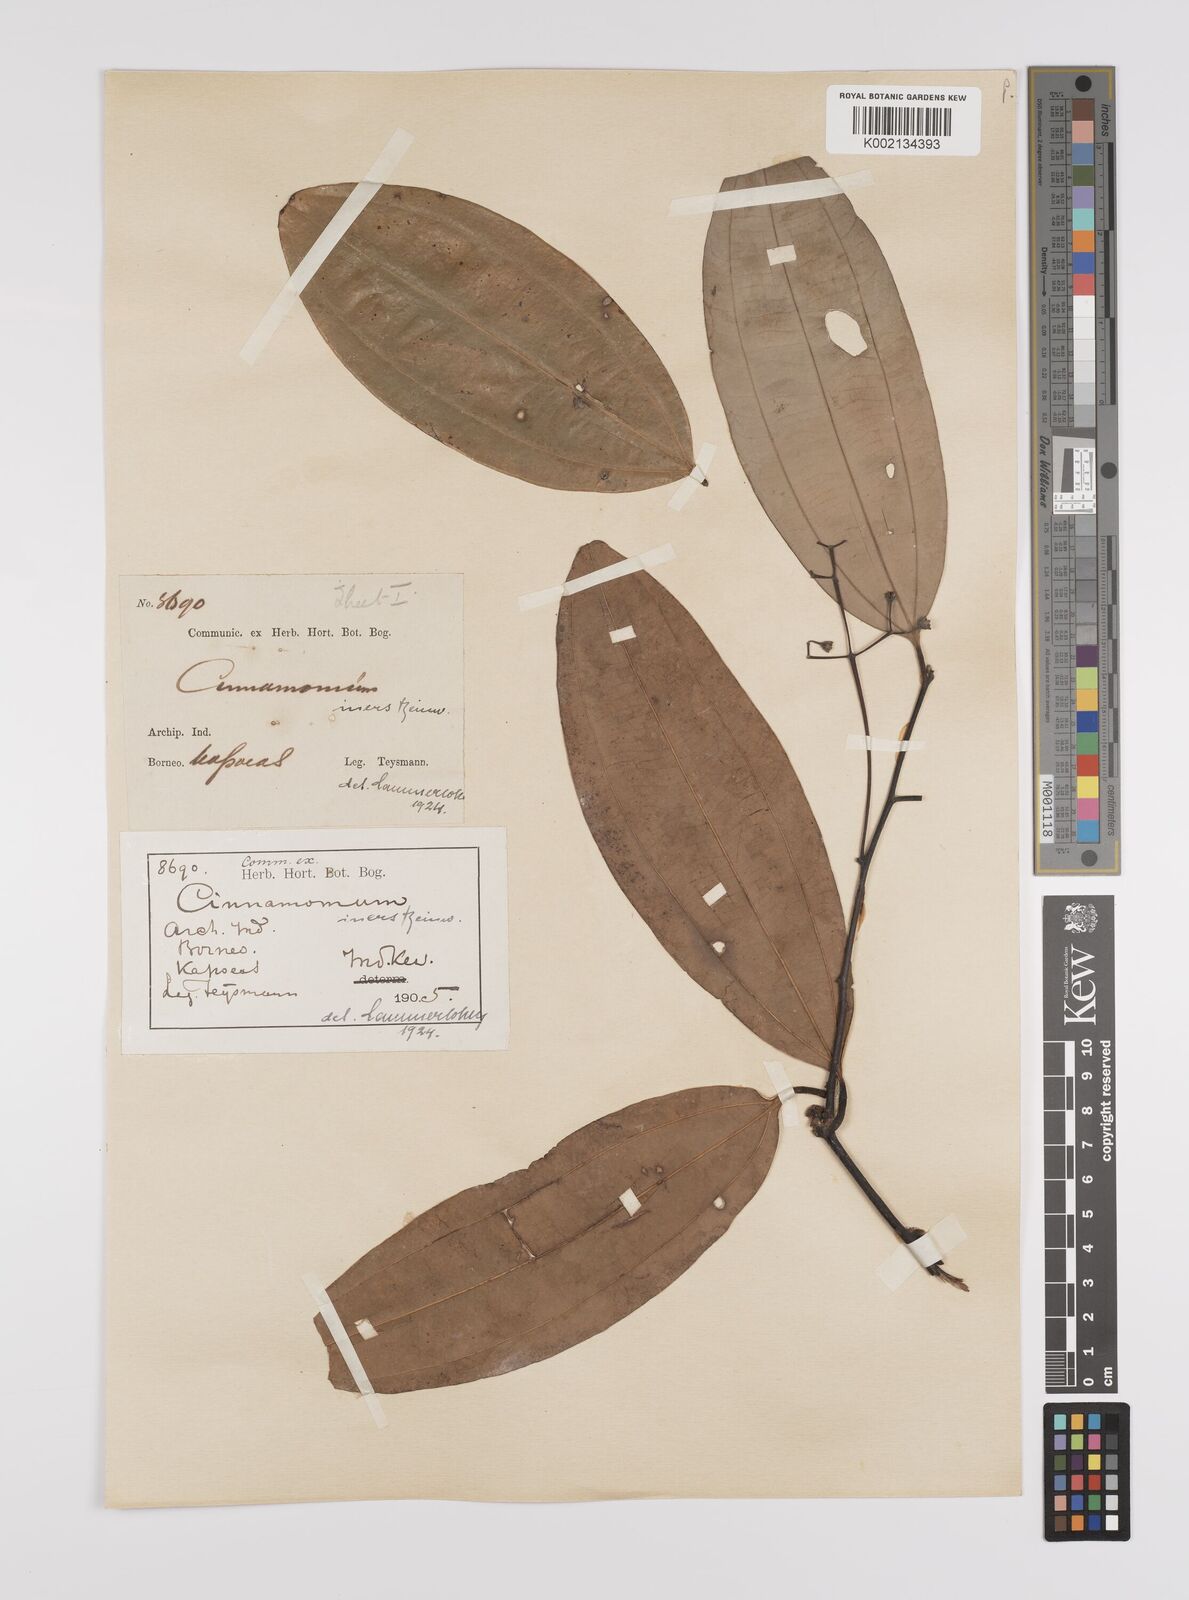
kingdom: Plantae
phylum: Tracheophyta
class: Magnoliopsida
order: Laurales
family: Lauraceae
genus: Cinnamomum
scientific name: Cinnamomum iners
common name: Wild cinnamon
